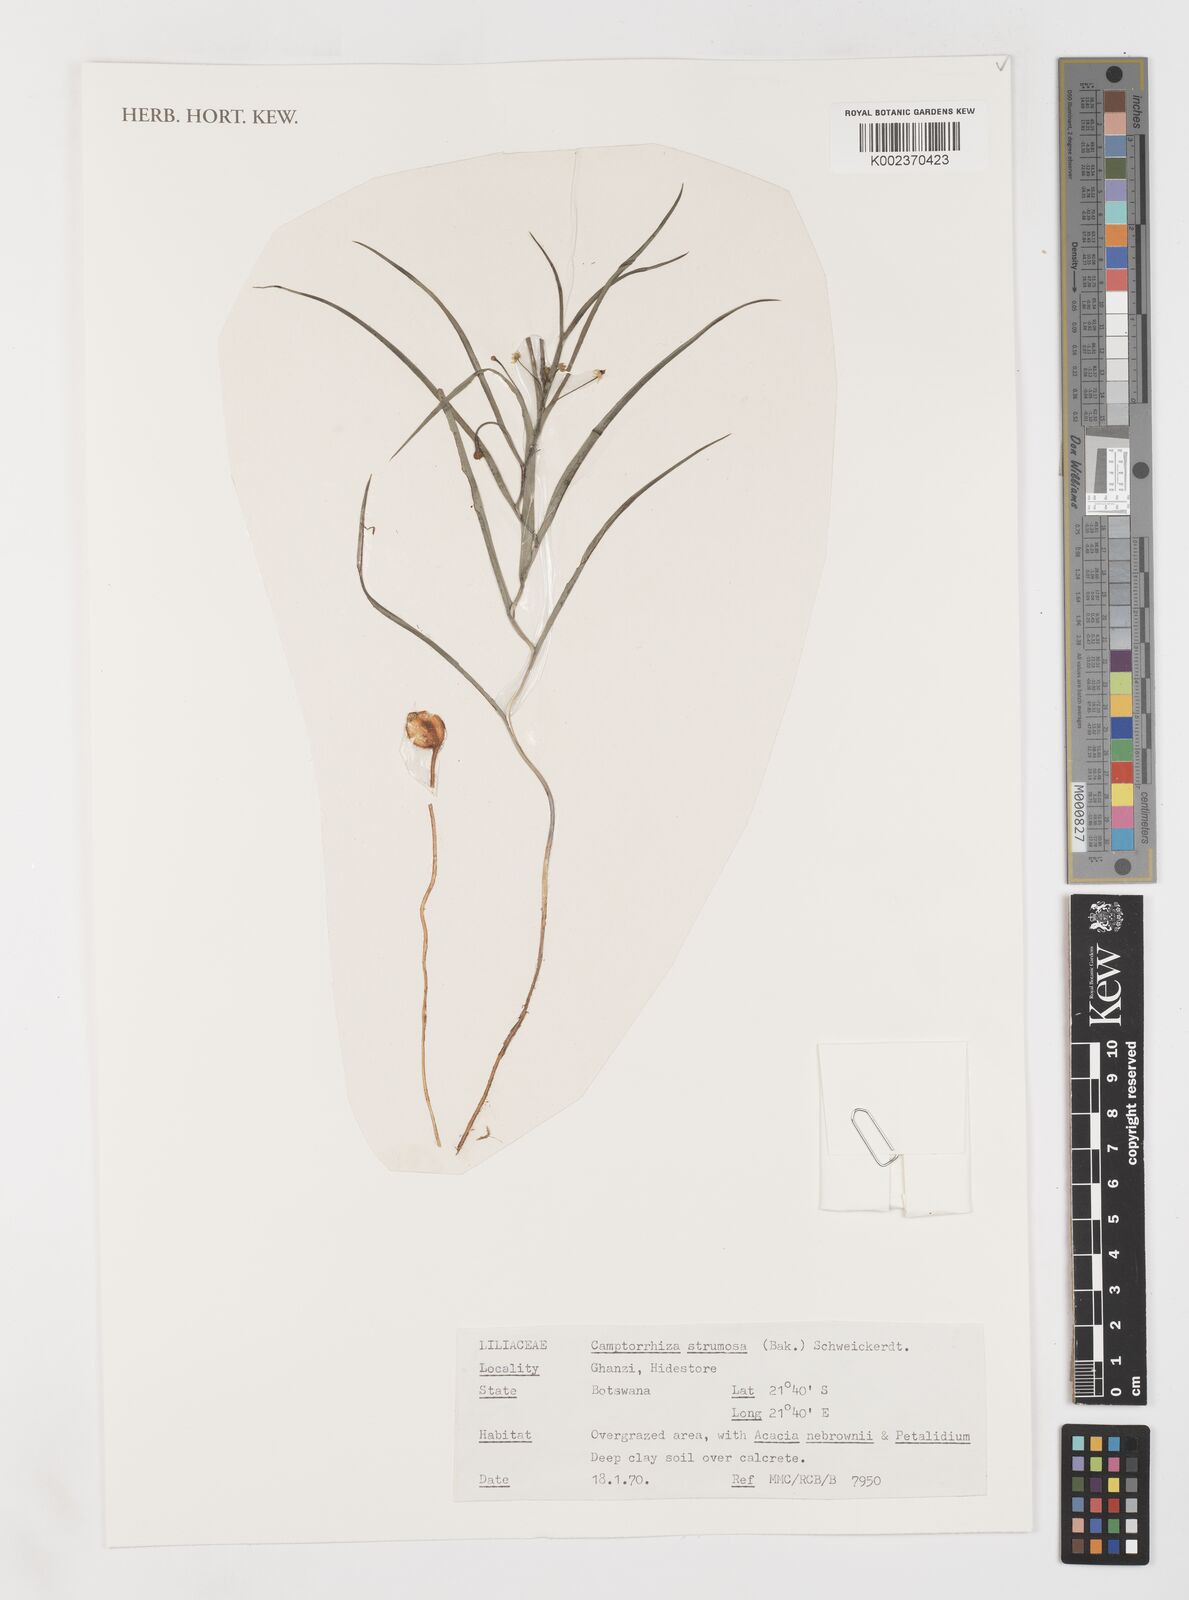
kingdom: Plantae
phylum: Tracheophyta
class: Liliopsida
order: Liliales
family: Colchicaceae
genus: Camptorrhiza
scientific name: Camptorrhiza strumosa
